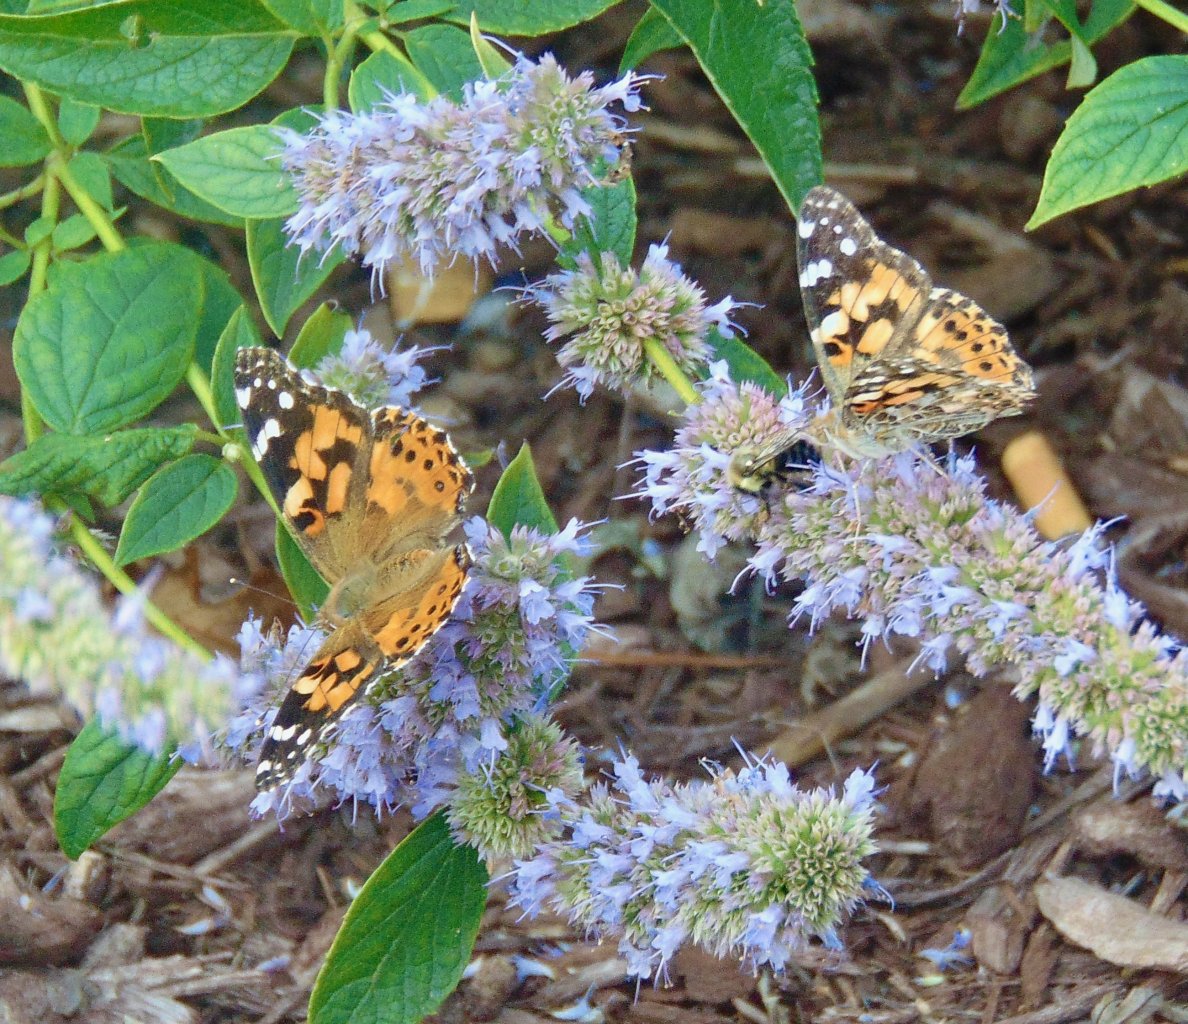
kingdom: Animalia
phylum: Arthropoda
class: Insecta
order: Lepidoptera
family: Nymphalidae
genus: Vanessa
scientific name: Vanessa cardui
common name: Painted Lady
